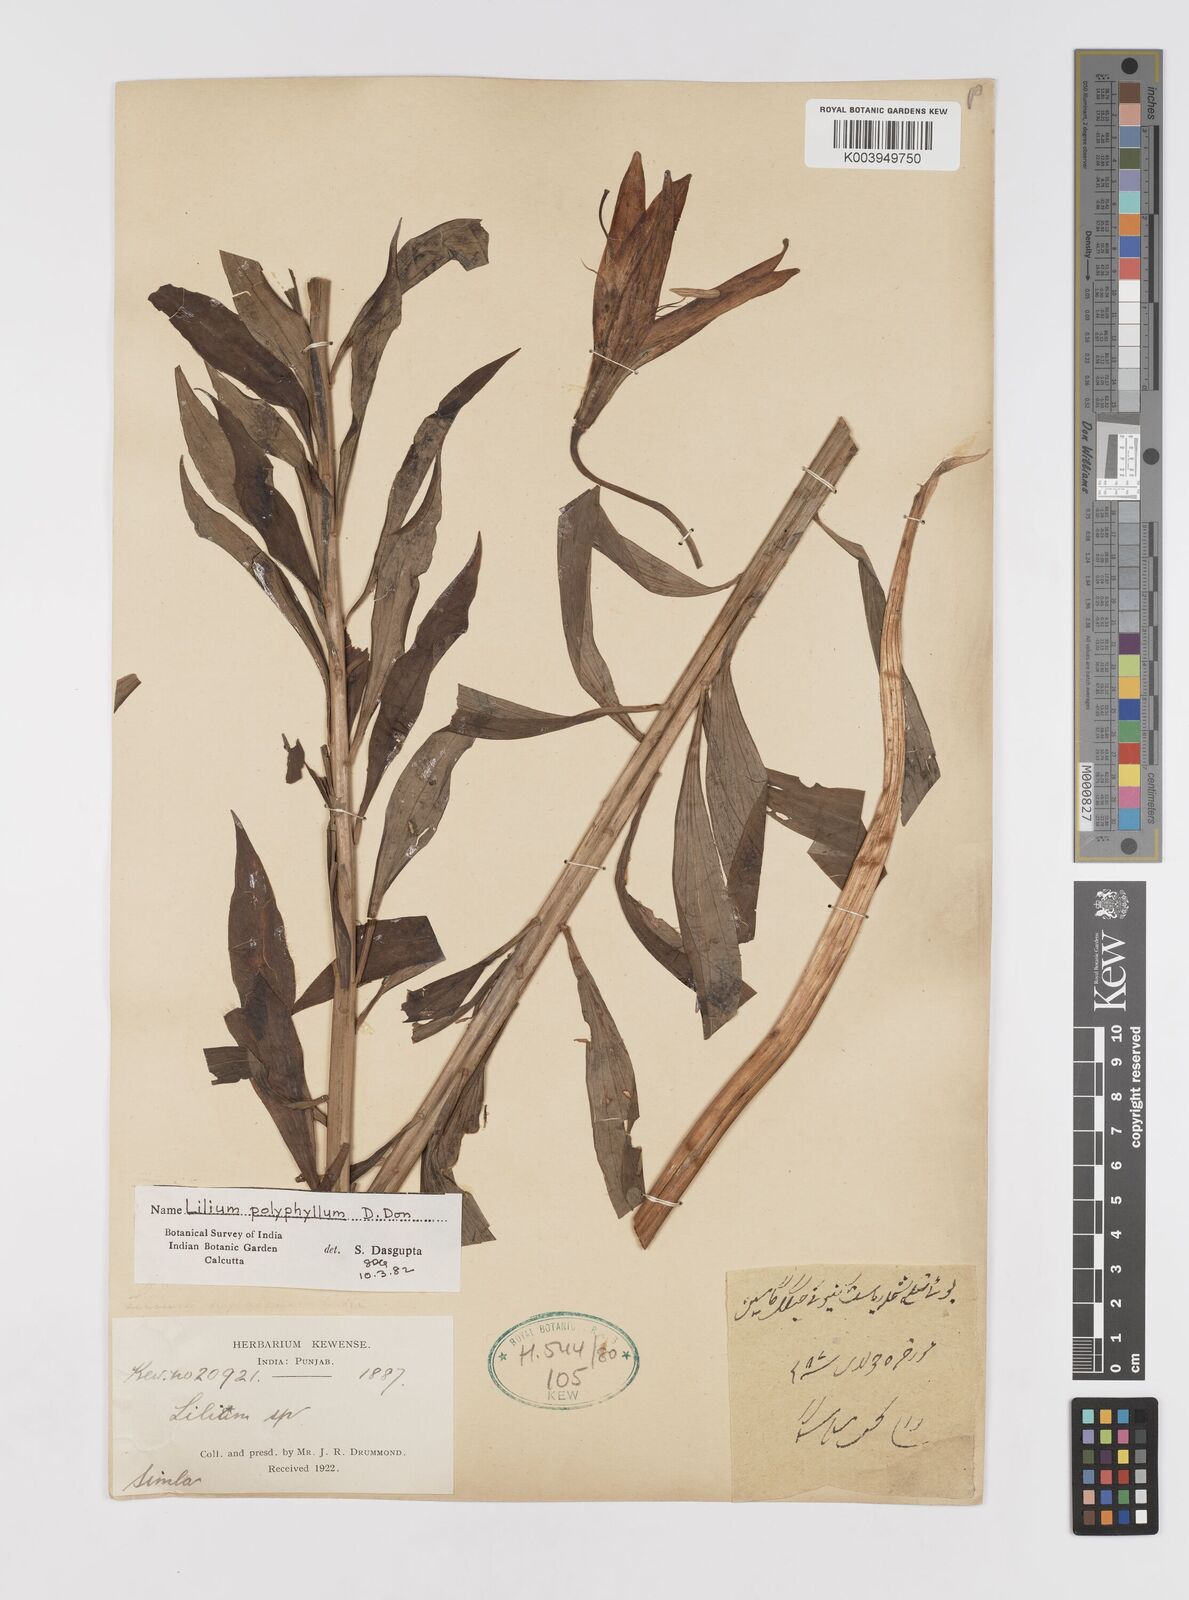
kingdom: Plantae
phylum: Tracheophyta
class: Liliopsida
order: Liliales
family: Liliaceae
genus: Lilium
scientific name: Lilium polyphyllum
